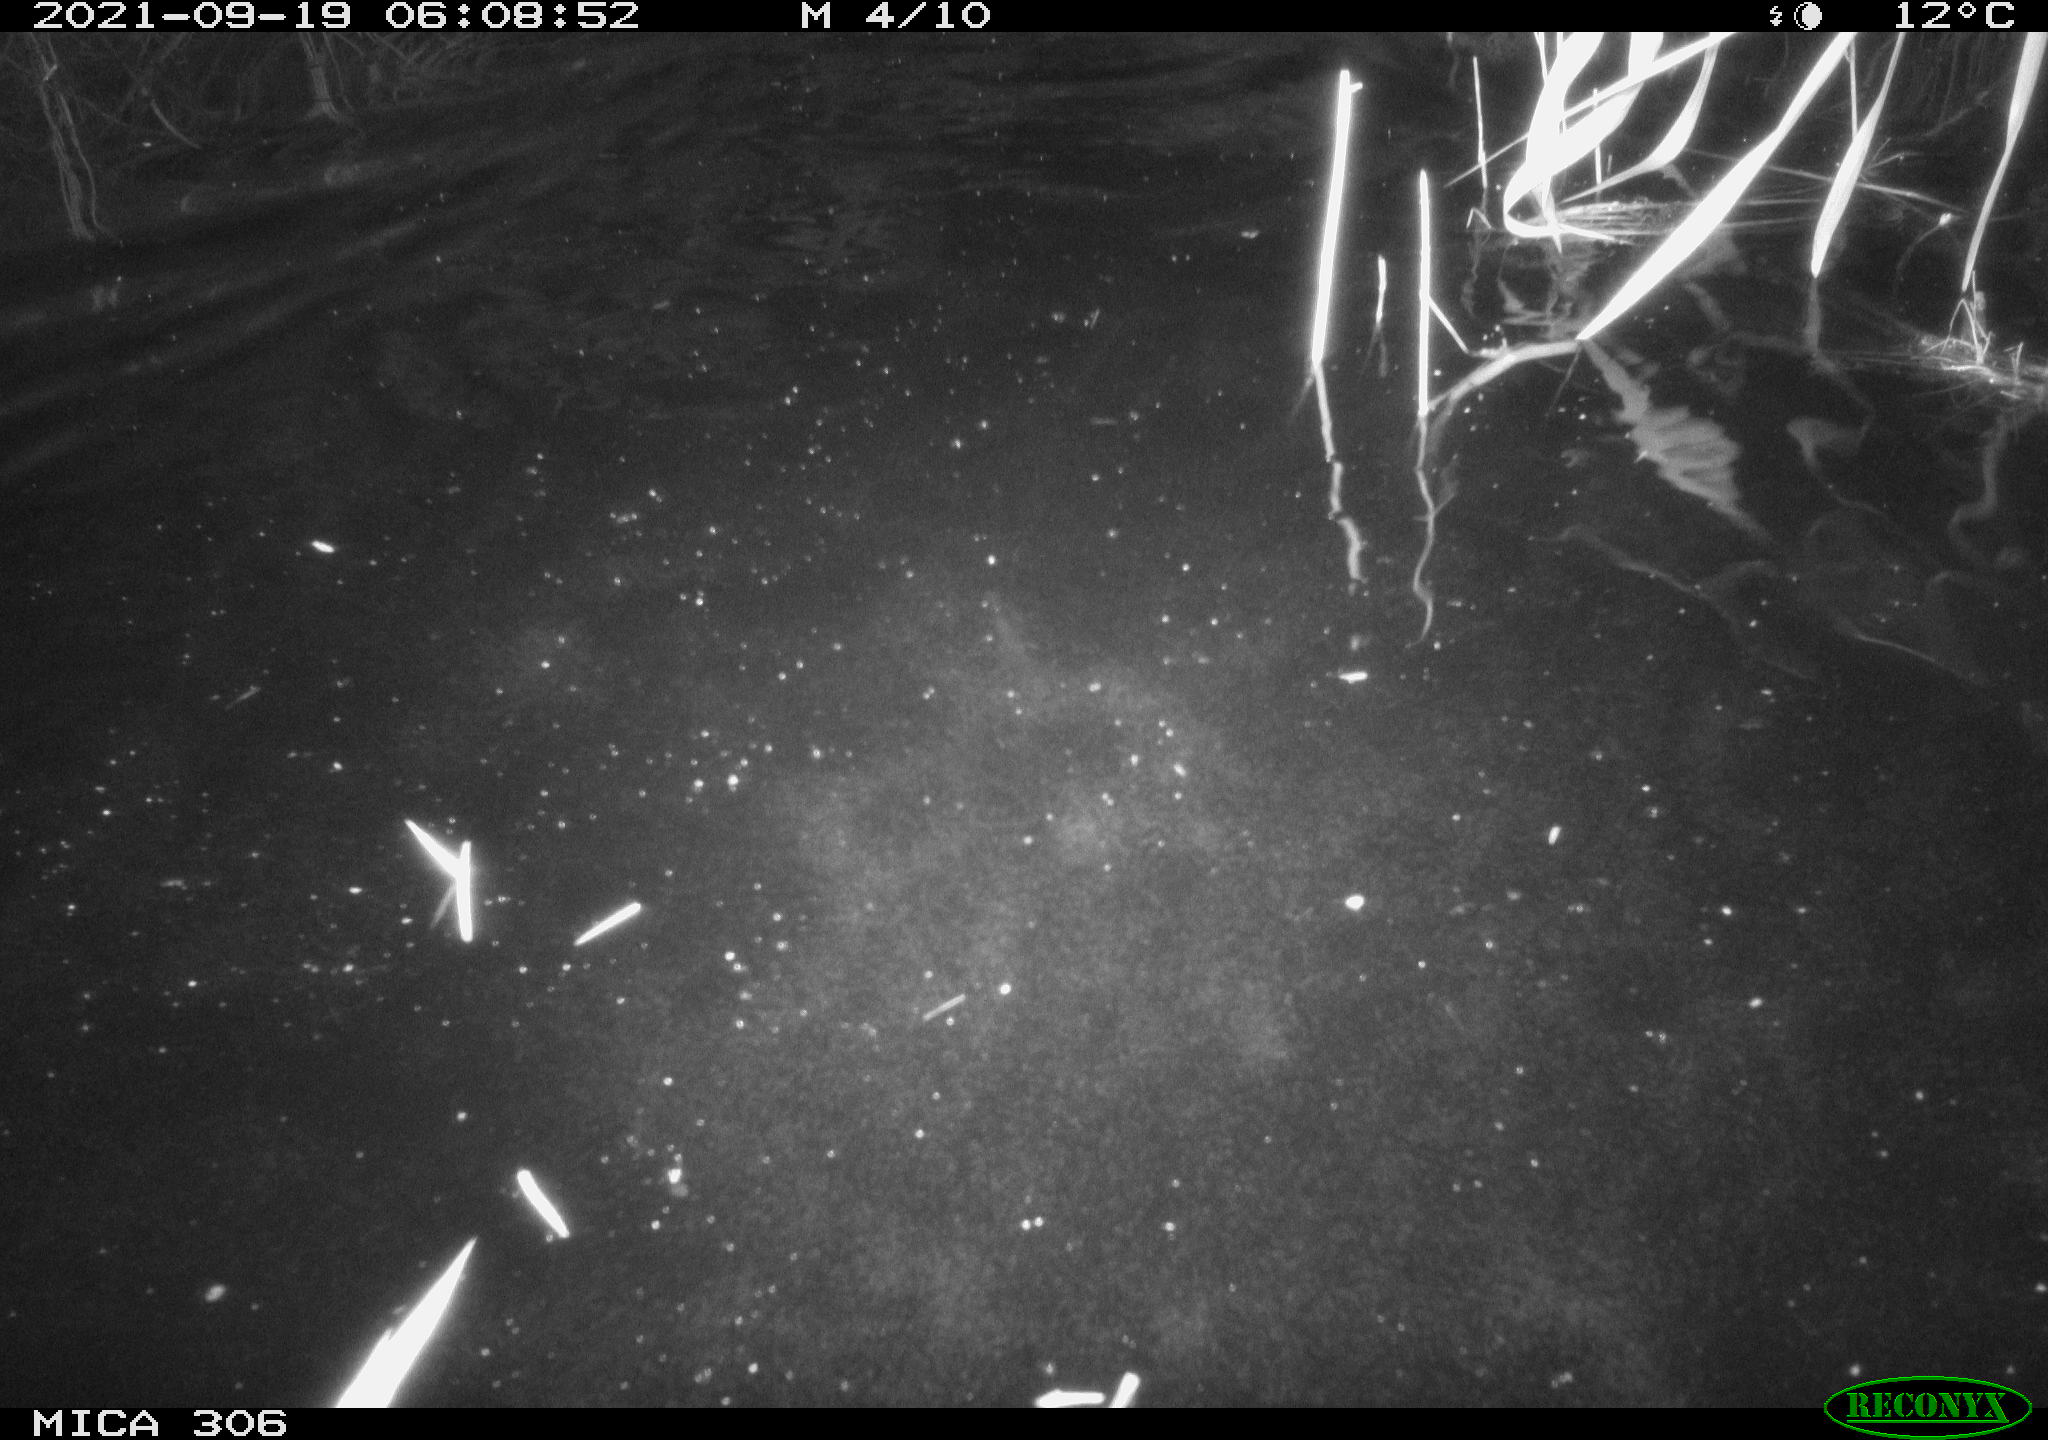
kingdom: Animalia
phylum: Chordata
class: Mammalia
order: Rodentia
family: Cricetidae
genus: Ondatra
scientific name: Ondatra zibethicus
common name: Muskrat
